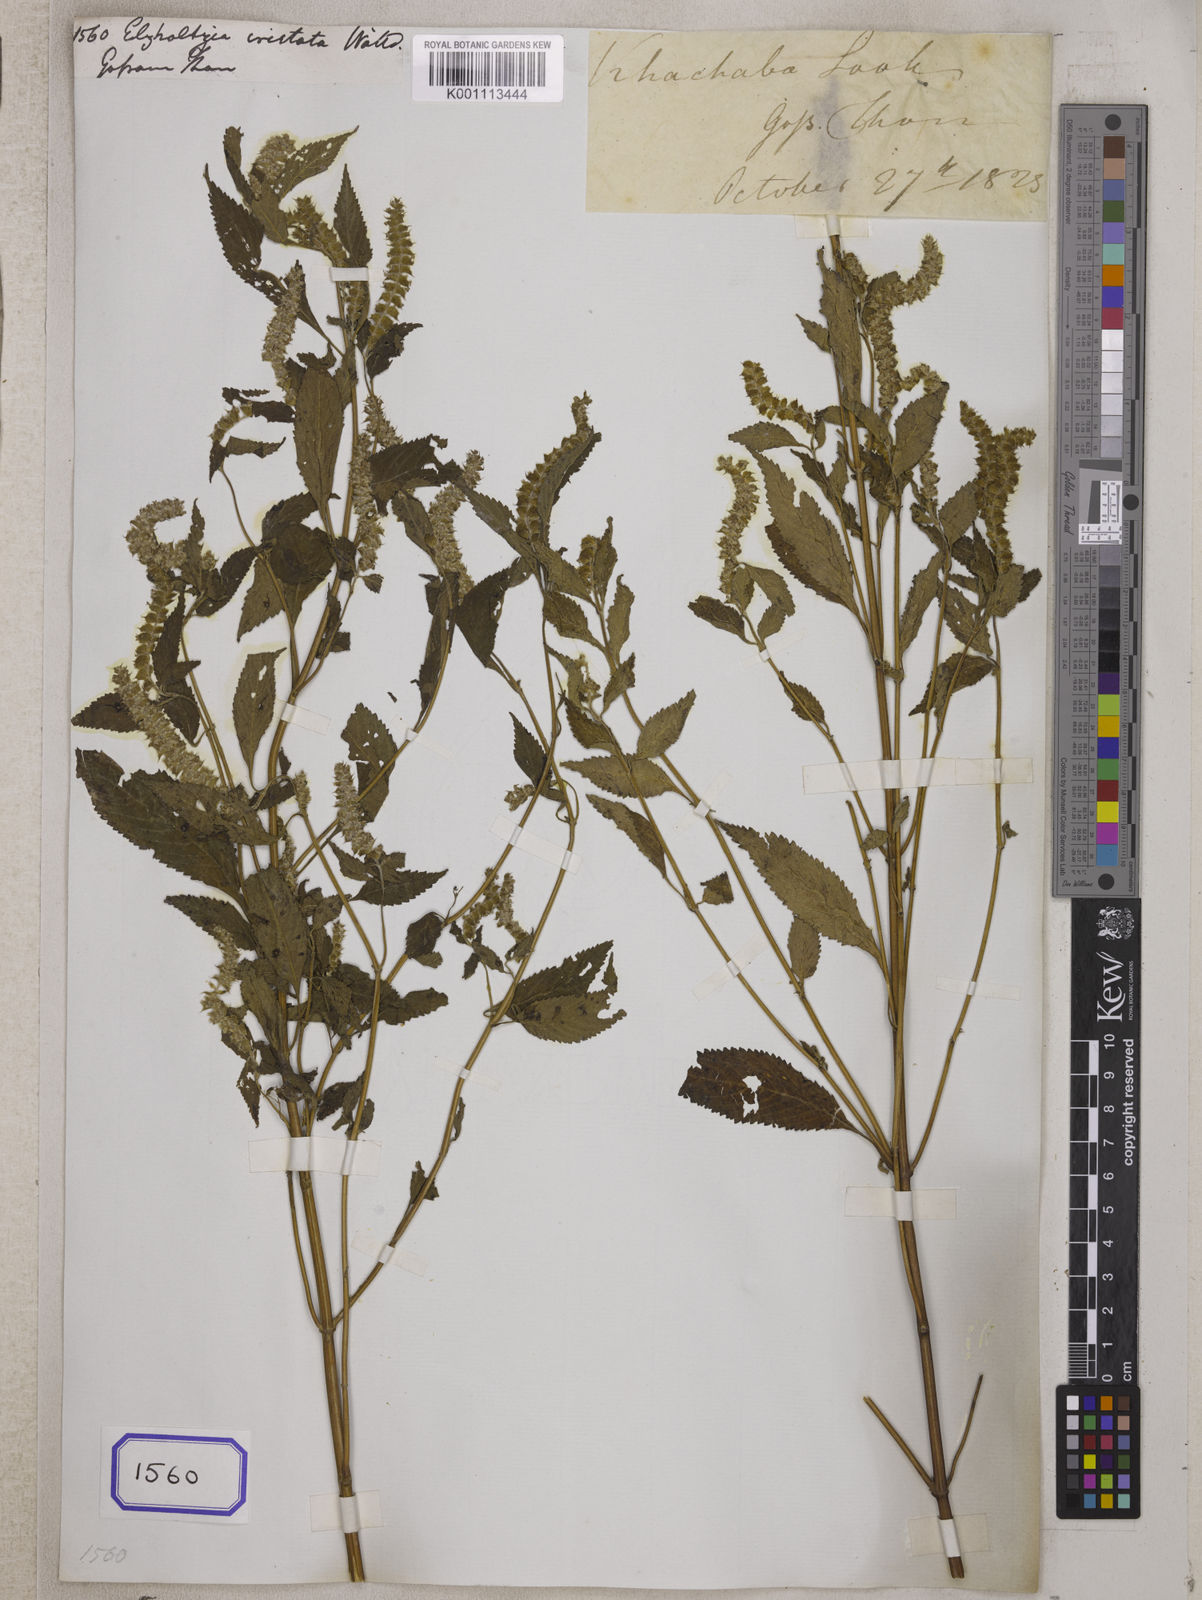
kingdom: Plantae
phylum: Tracheophyta
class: Magnoliopsida
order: Lamiales
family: Lamiaceae
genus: Elsholtzia
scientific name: Elsholtzia ciliata
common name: Ciliate elsholtzia
